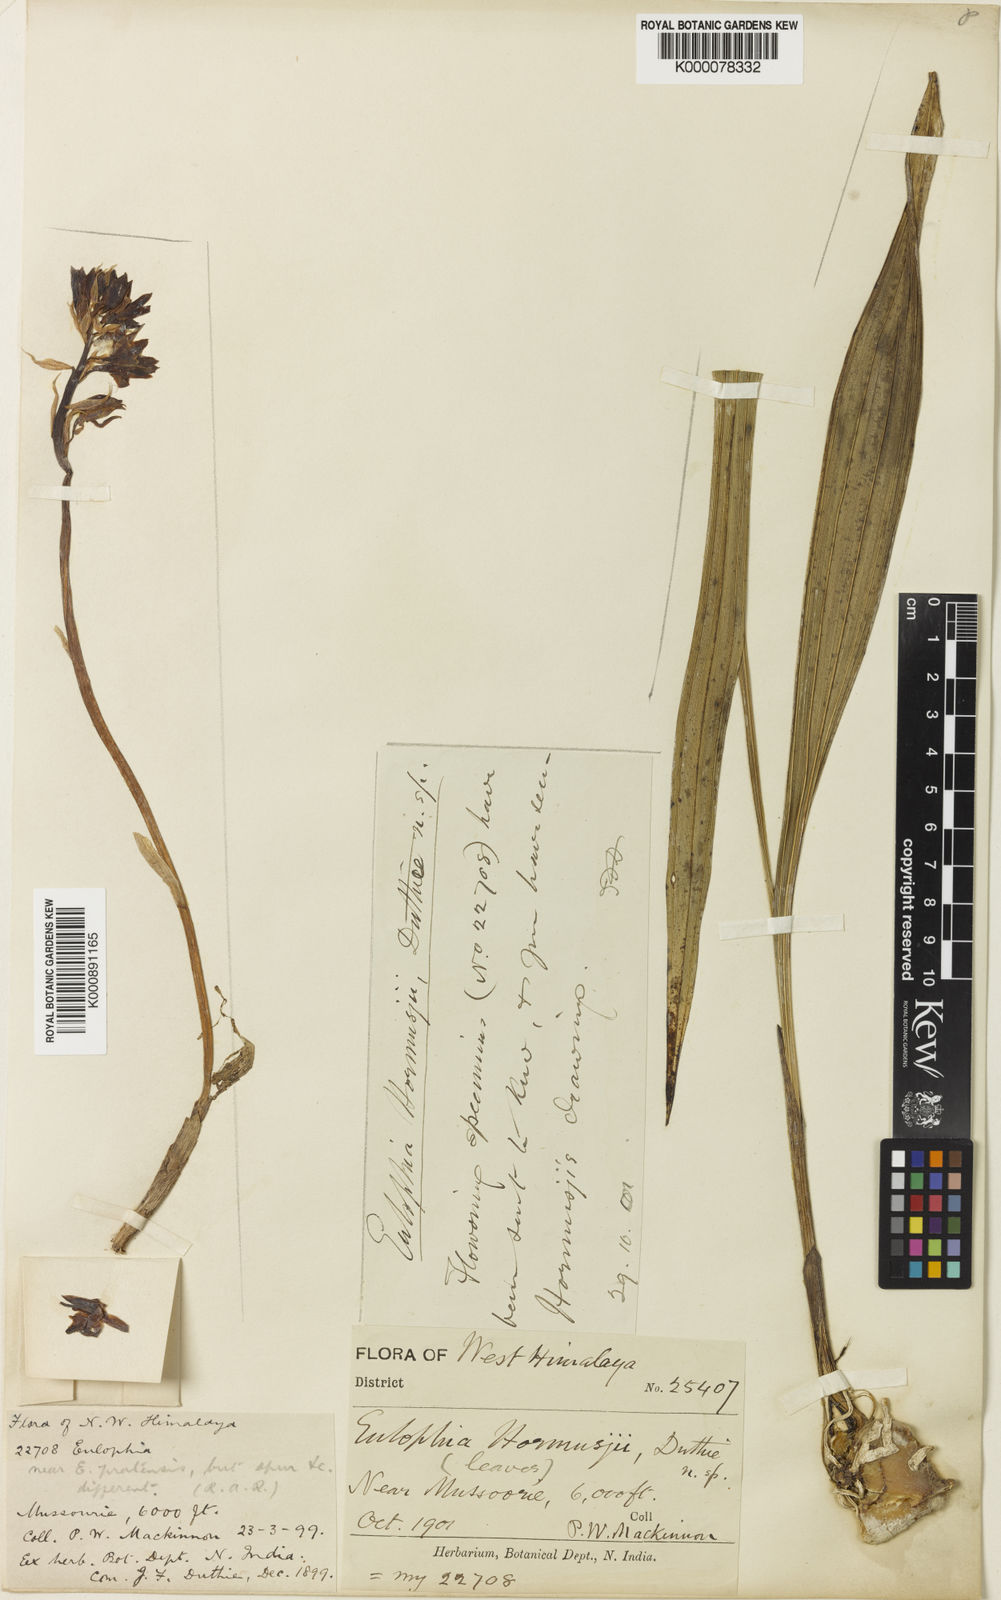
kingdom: Plantae
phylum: Tracheophyta
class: Liliopsida
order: Asparagales
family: Orchidaceae
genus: Eulophia
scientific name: Eulophia dabia
